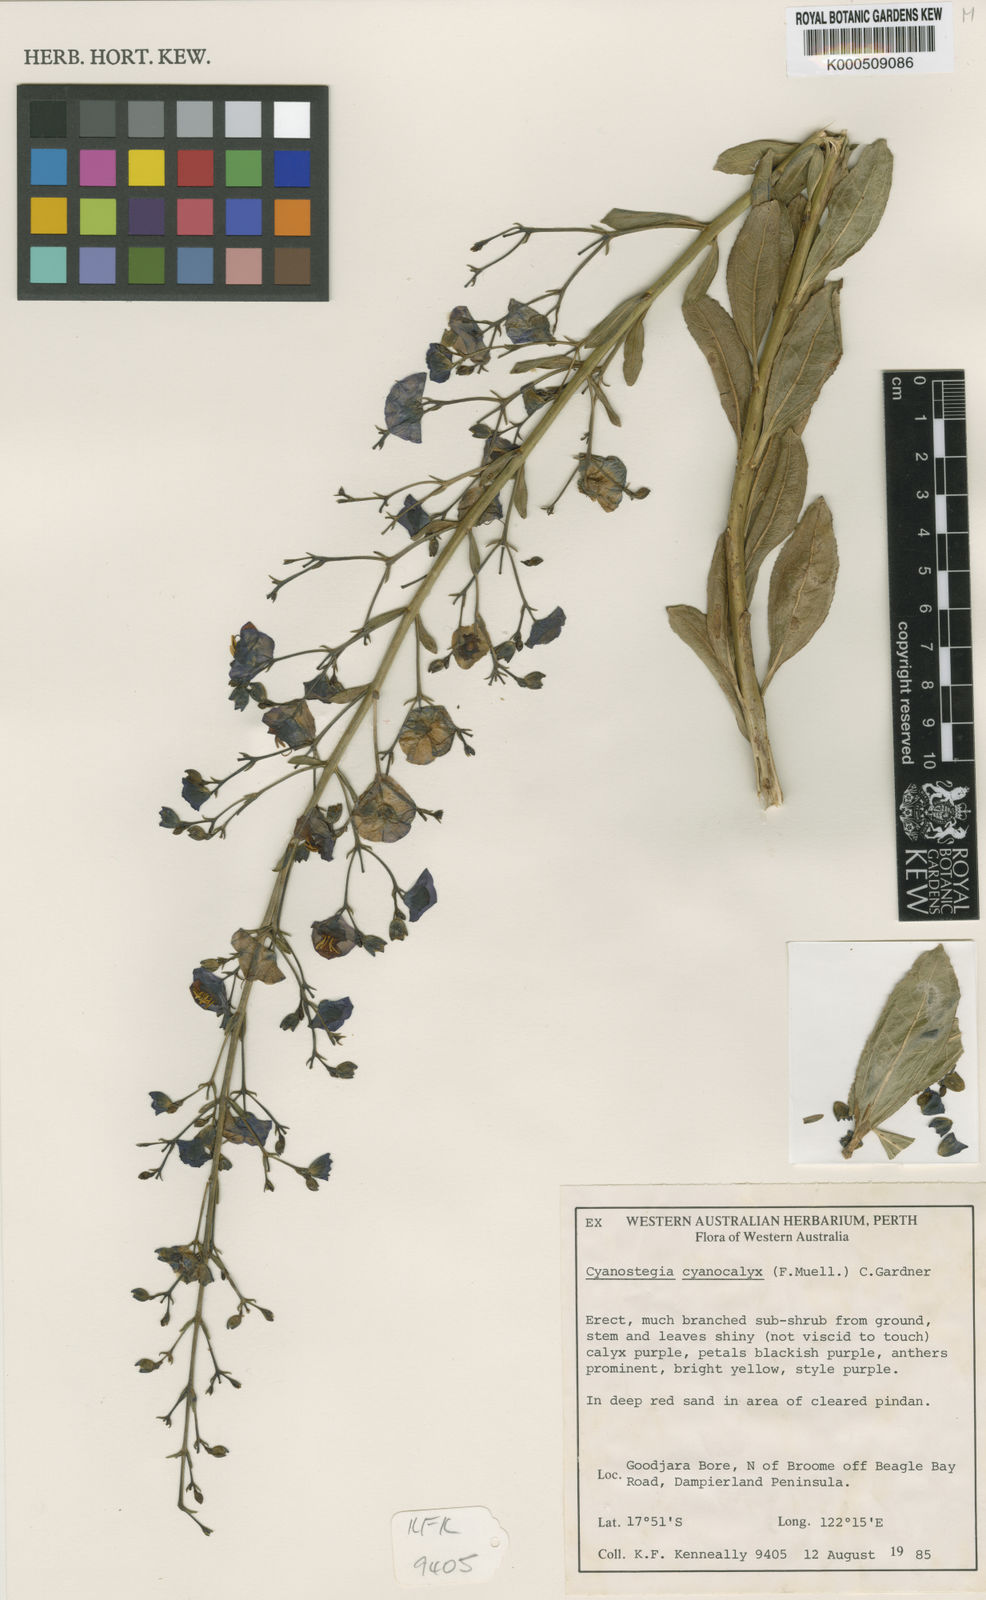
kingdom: Plantae
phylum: Tracheophyta
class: Magnoliopsida
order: Lamiales
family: Lamiaceae
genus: Cyanostegia
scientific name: Cyanostegia cyanocalyx
